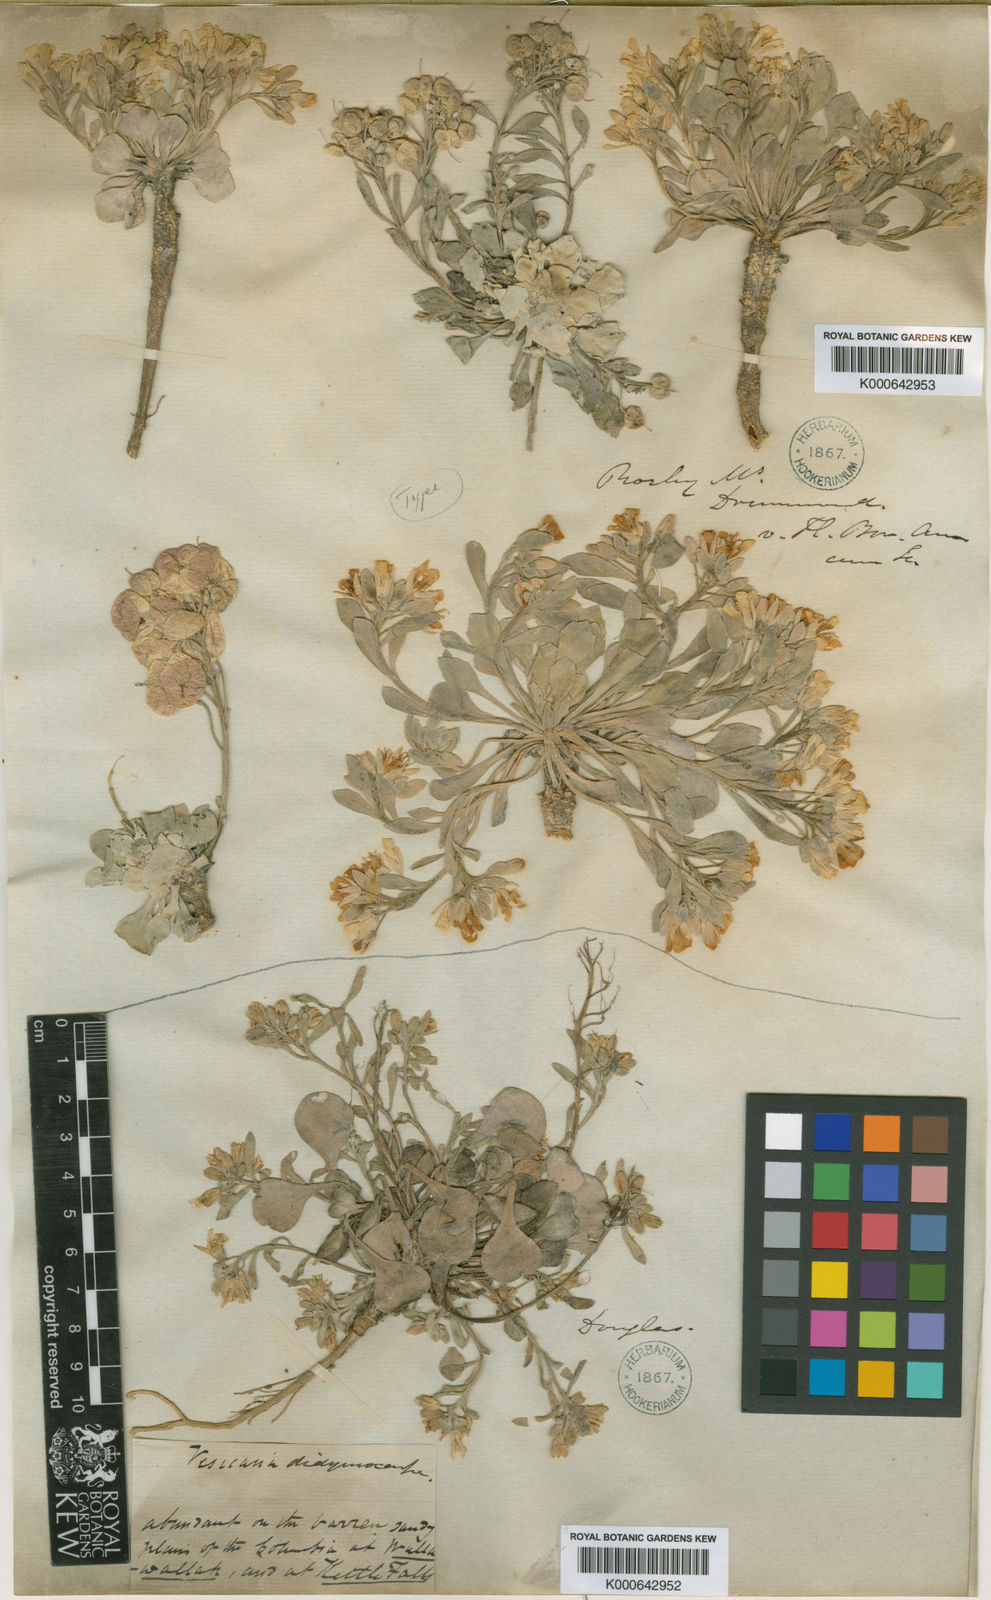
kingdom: Plantae
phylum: Tracheophyta
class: Magnoliopsida
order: Brassicales
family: Brassicaceae
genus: Physaria
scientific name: Physaria didymocarpa
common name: Common twinpod
